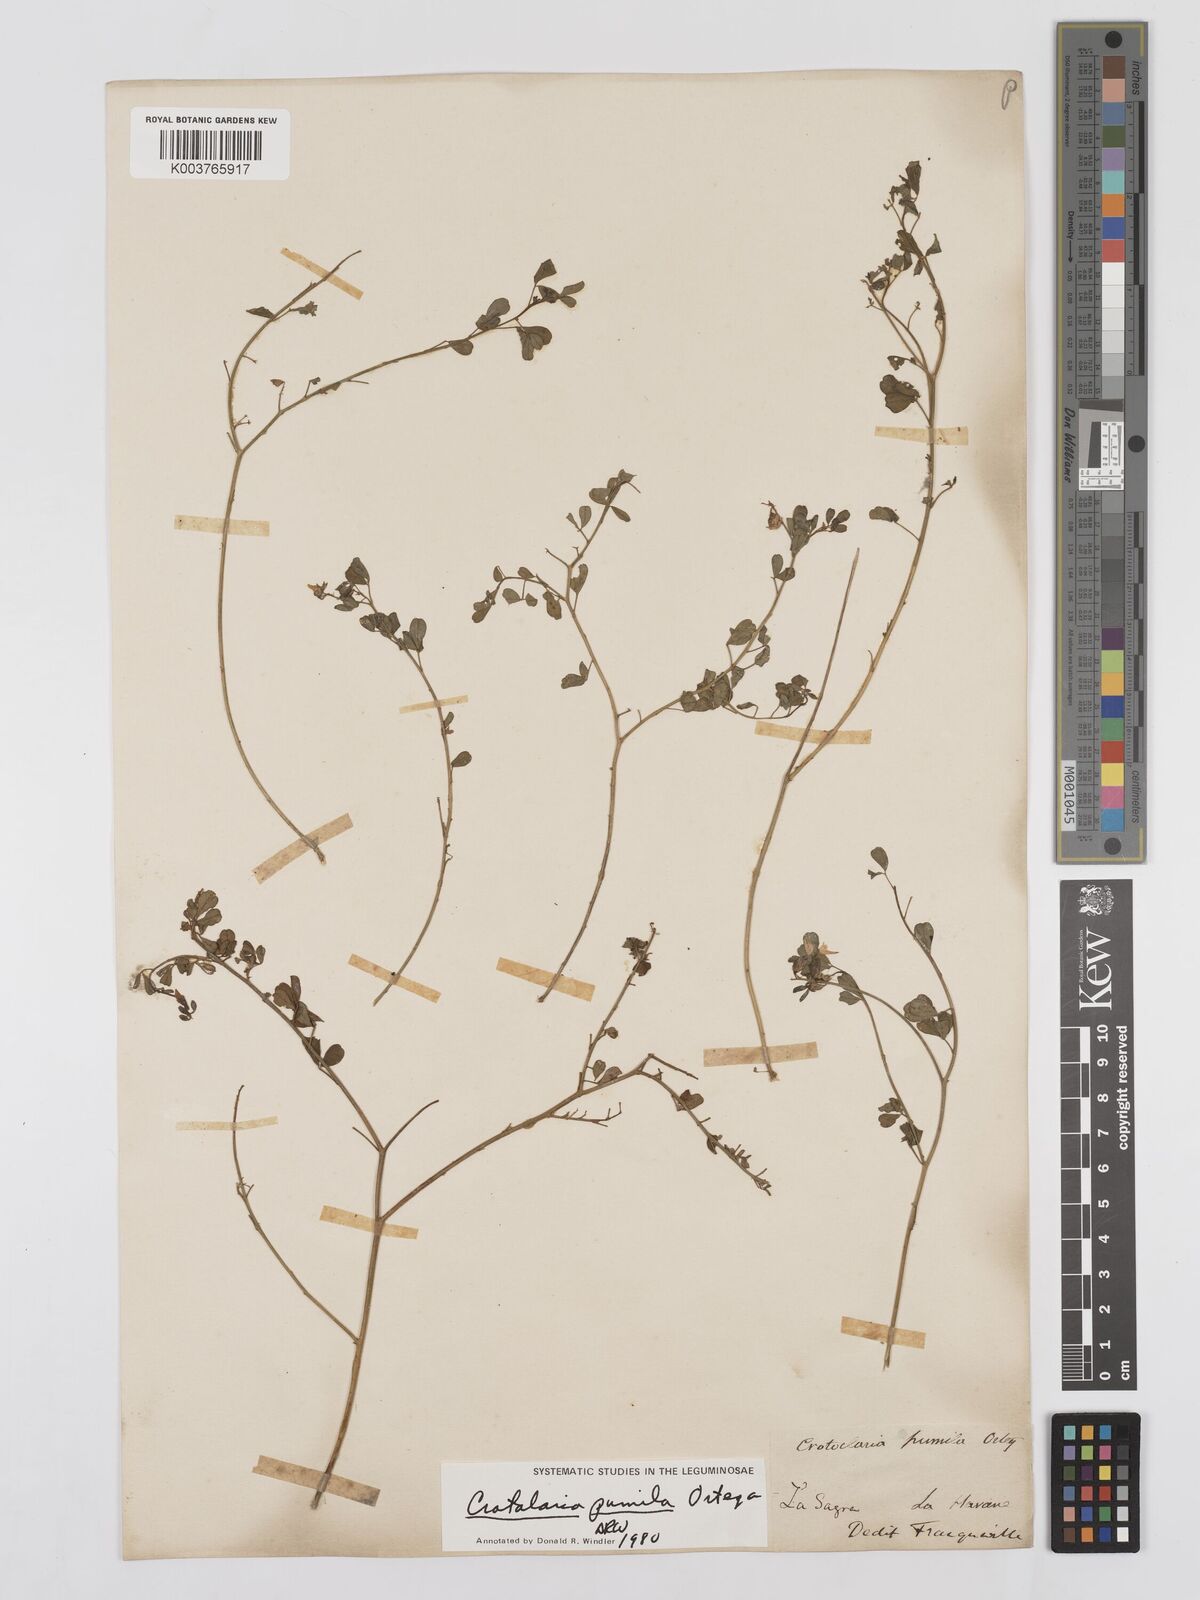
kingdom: Plantae
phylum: Tracheophyta
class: Magnoliopsida
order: Fabales
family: Fabaceae
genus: Crotalaria
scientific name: Crotalaria pumila
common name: Low rattlebox
